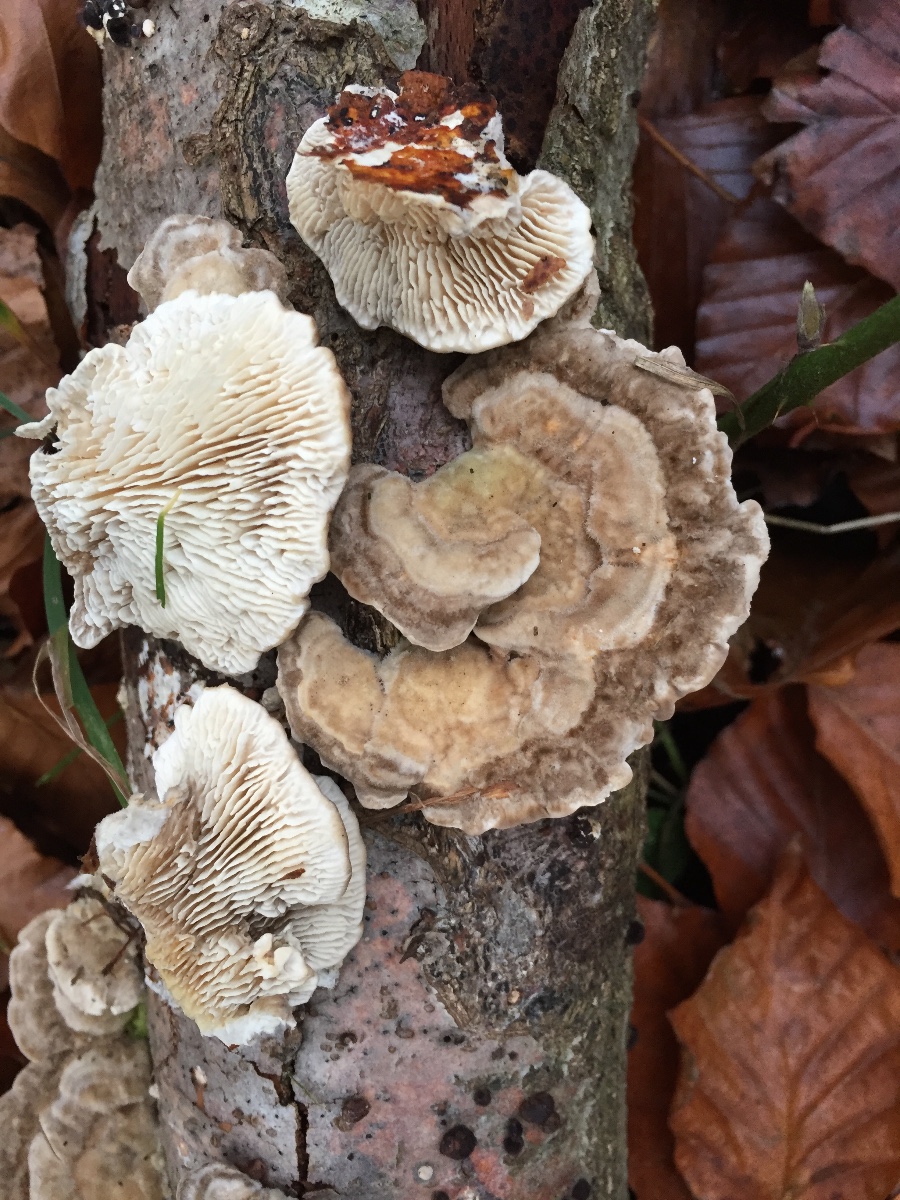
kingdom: Fungi
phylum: Basidiomycota
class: Agaricomycetes
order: Polyporales
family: Polyporaceae
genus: Lenzites
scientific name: Lenzites betulinus
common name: birke-læderporesvamp
